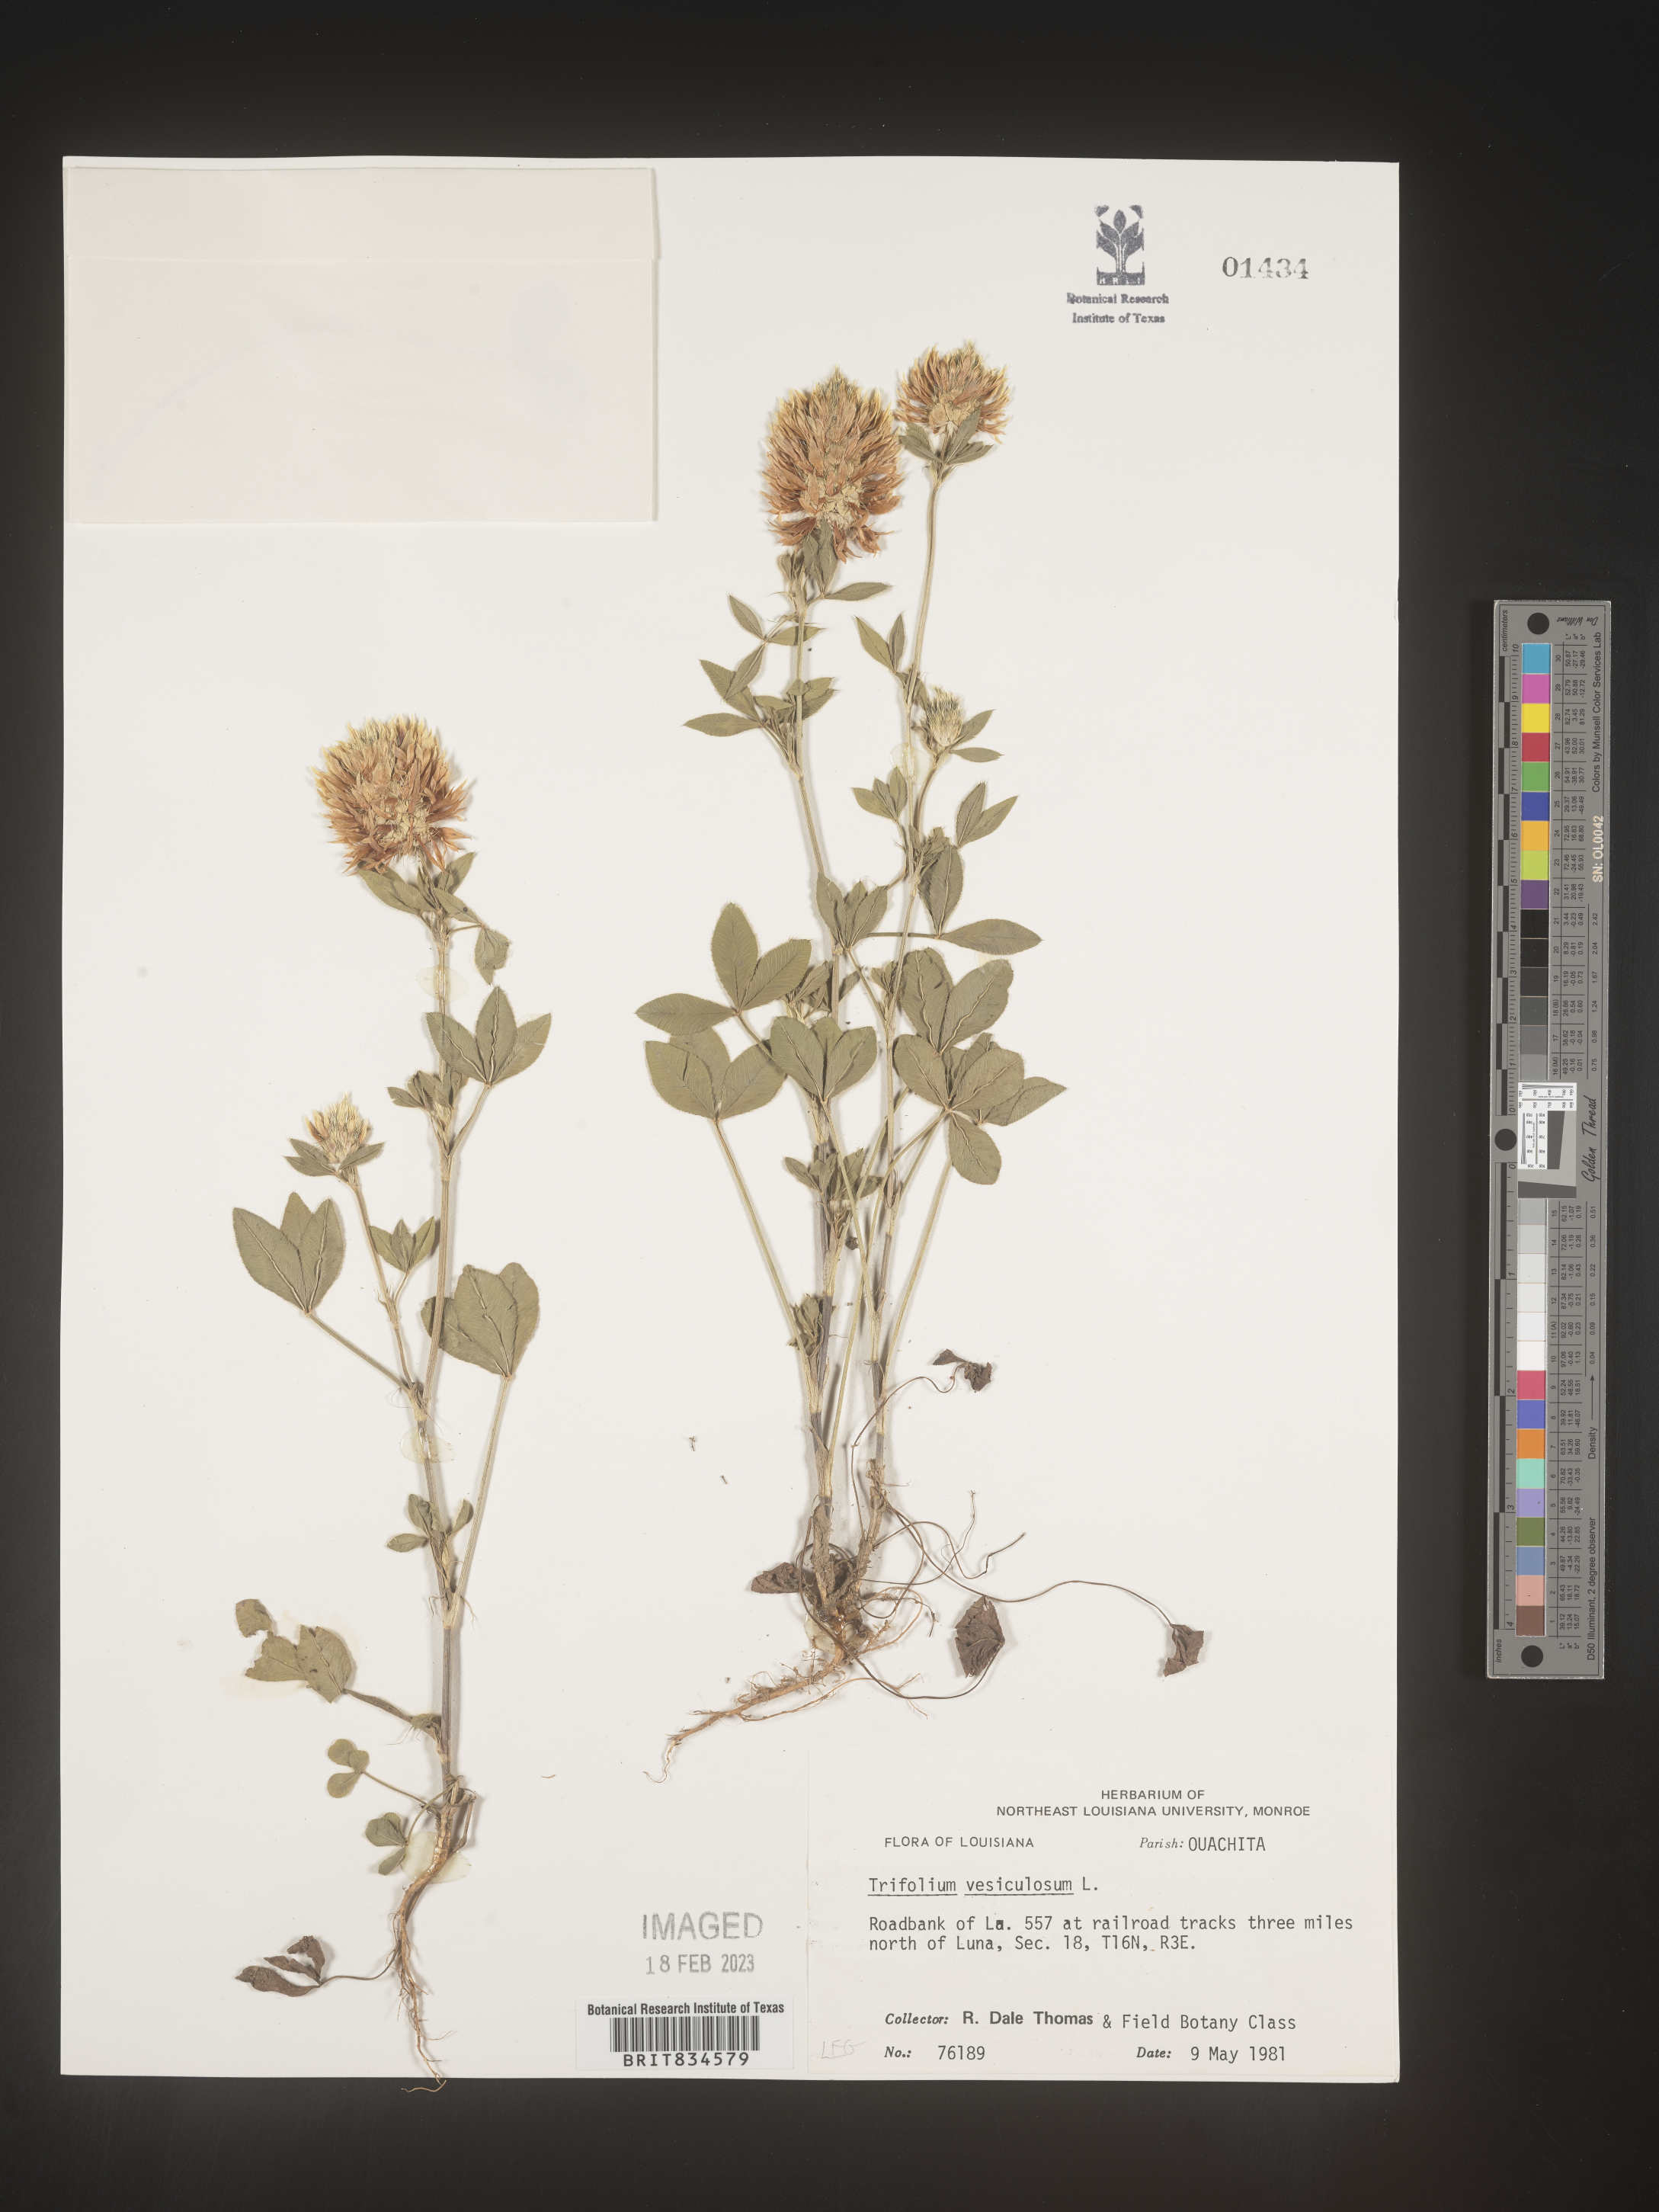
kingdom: Plantae
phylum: Tracheophyta
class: Magnoliopsida
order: Fabales
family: Fabaceae
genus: Trifolium
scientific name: Trifolium
